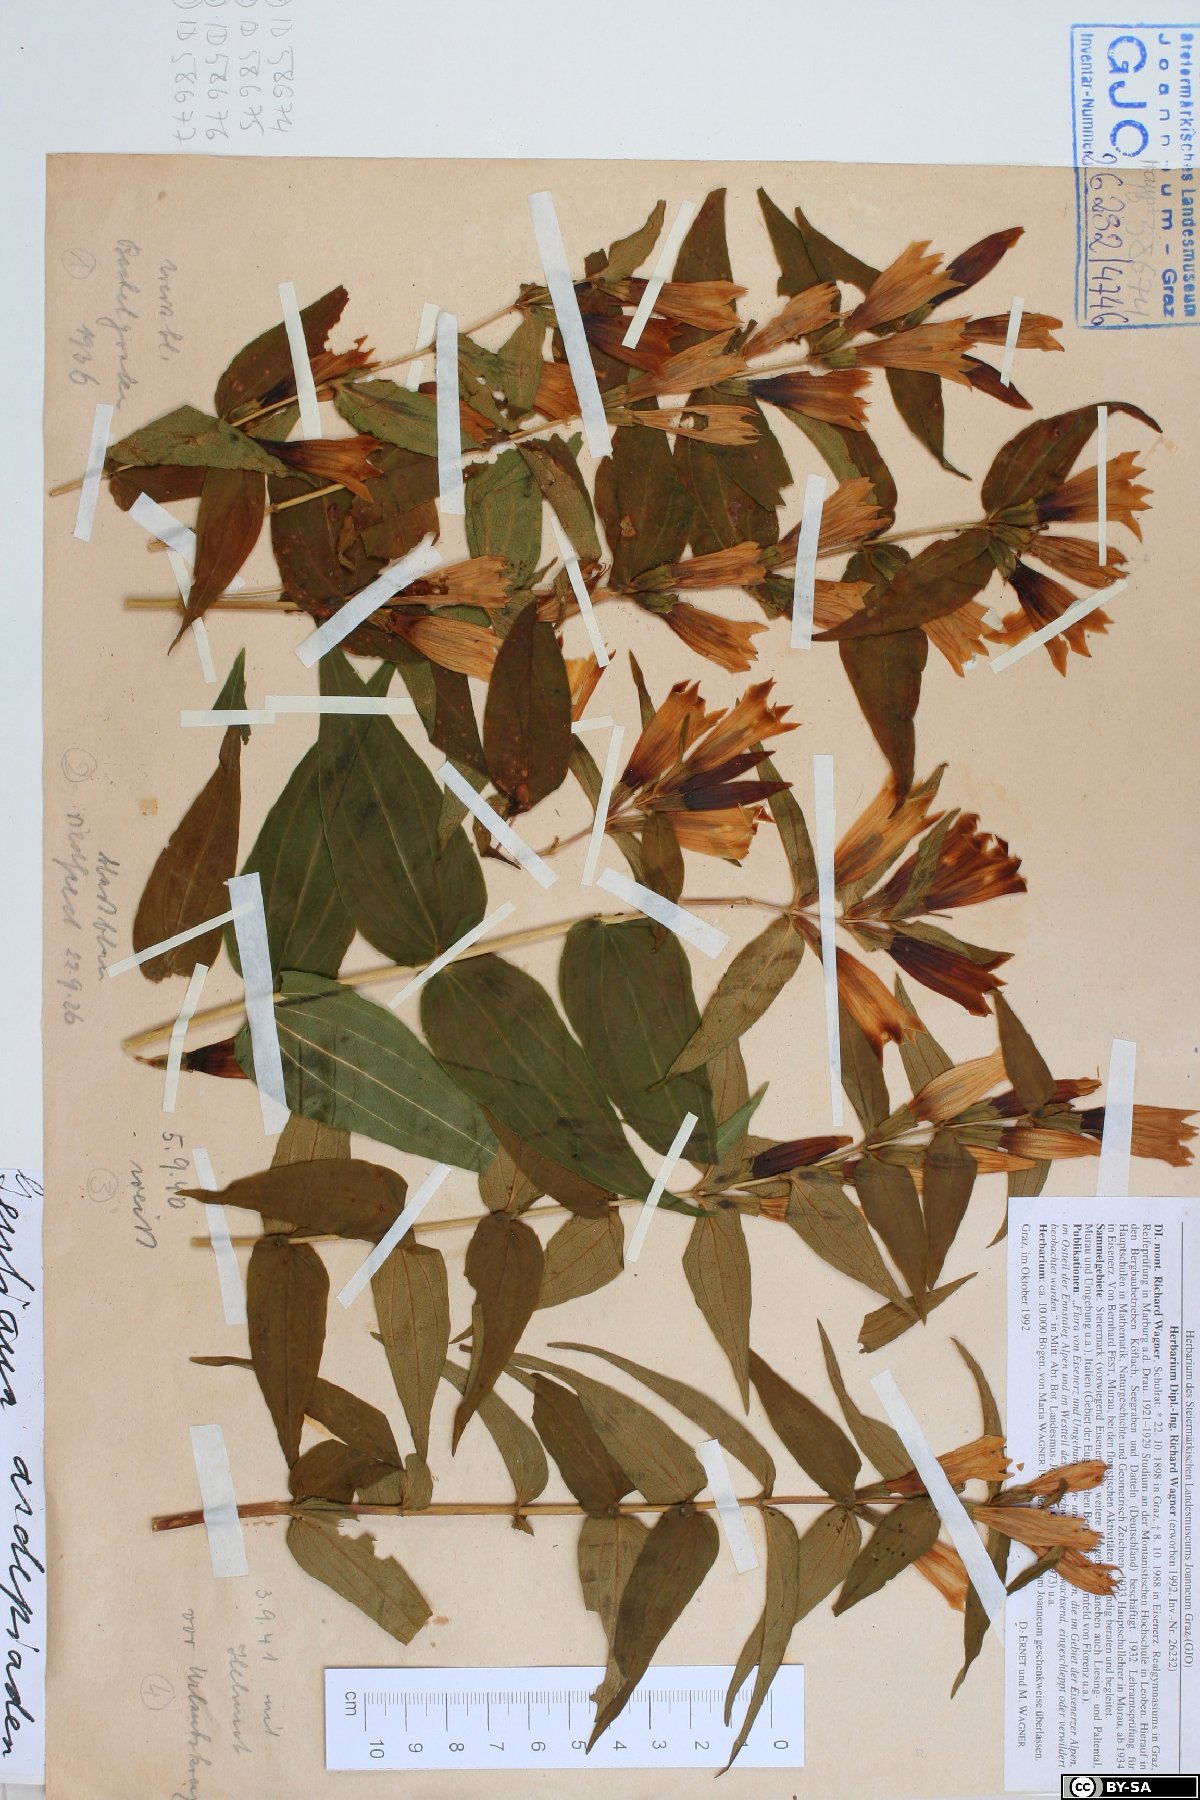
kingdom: Plantae
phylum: Tracheophyta
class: Magnoliopsida
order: Gentianales
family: Gentianaceae
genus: Gentiana
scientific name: Gentiana asclepiadea
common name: Willow gentian
